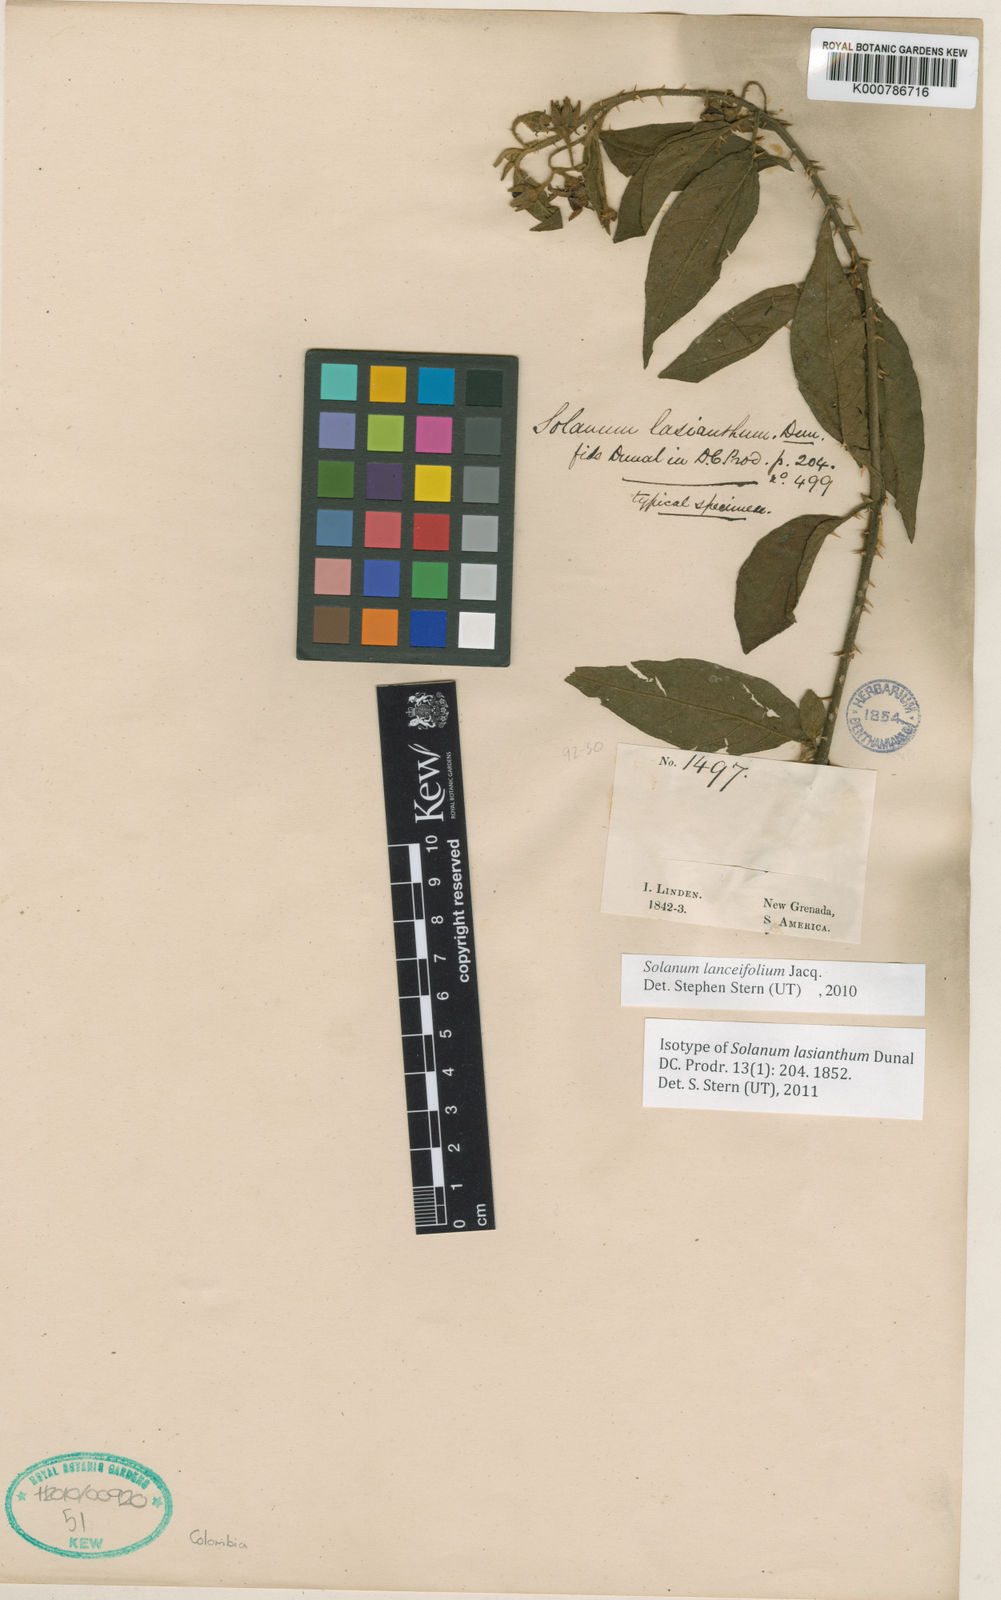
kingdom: Plantae
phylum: Tracheophyta
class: Magnoliopsida
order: Solanales
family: Solanaceae
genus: Solanum
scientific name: Solanum lanceifolium
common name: Lanceleaf nightshade
